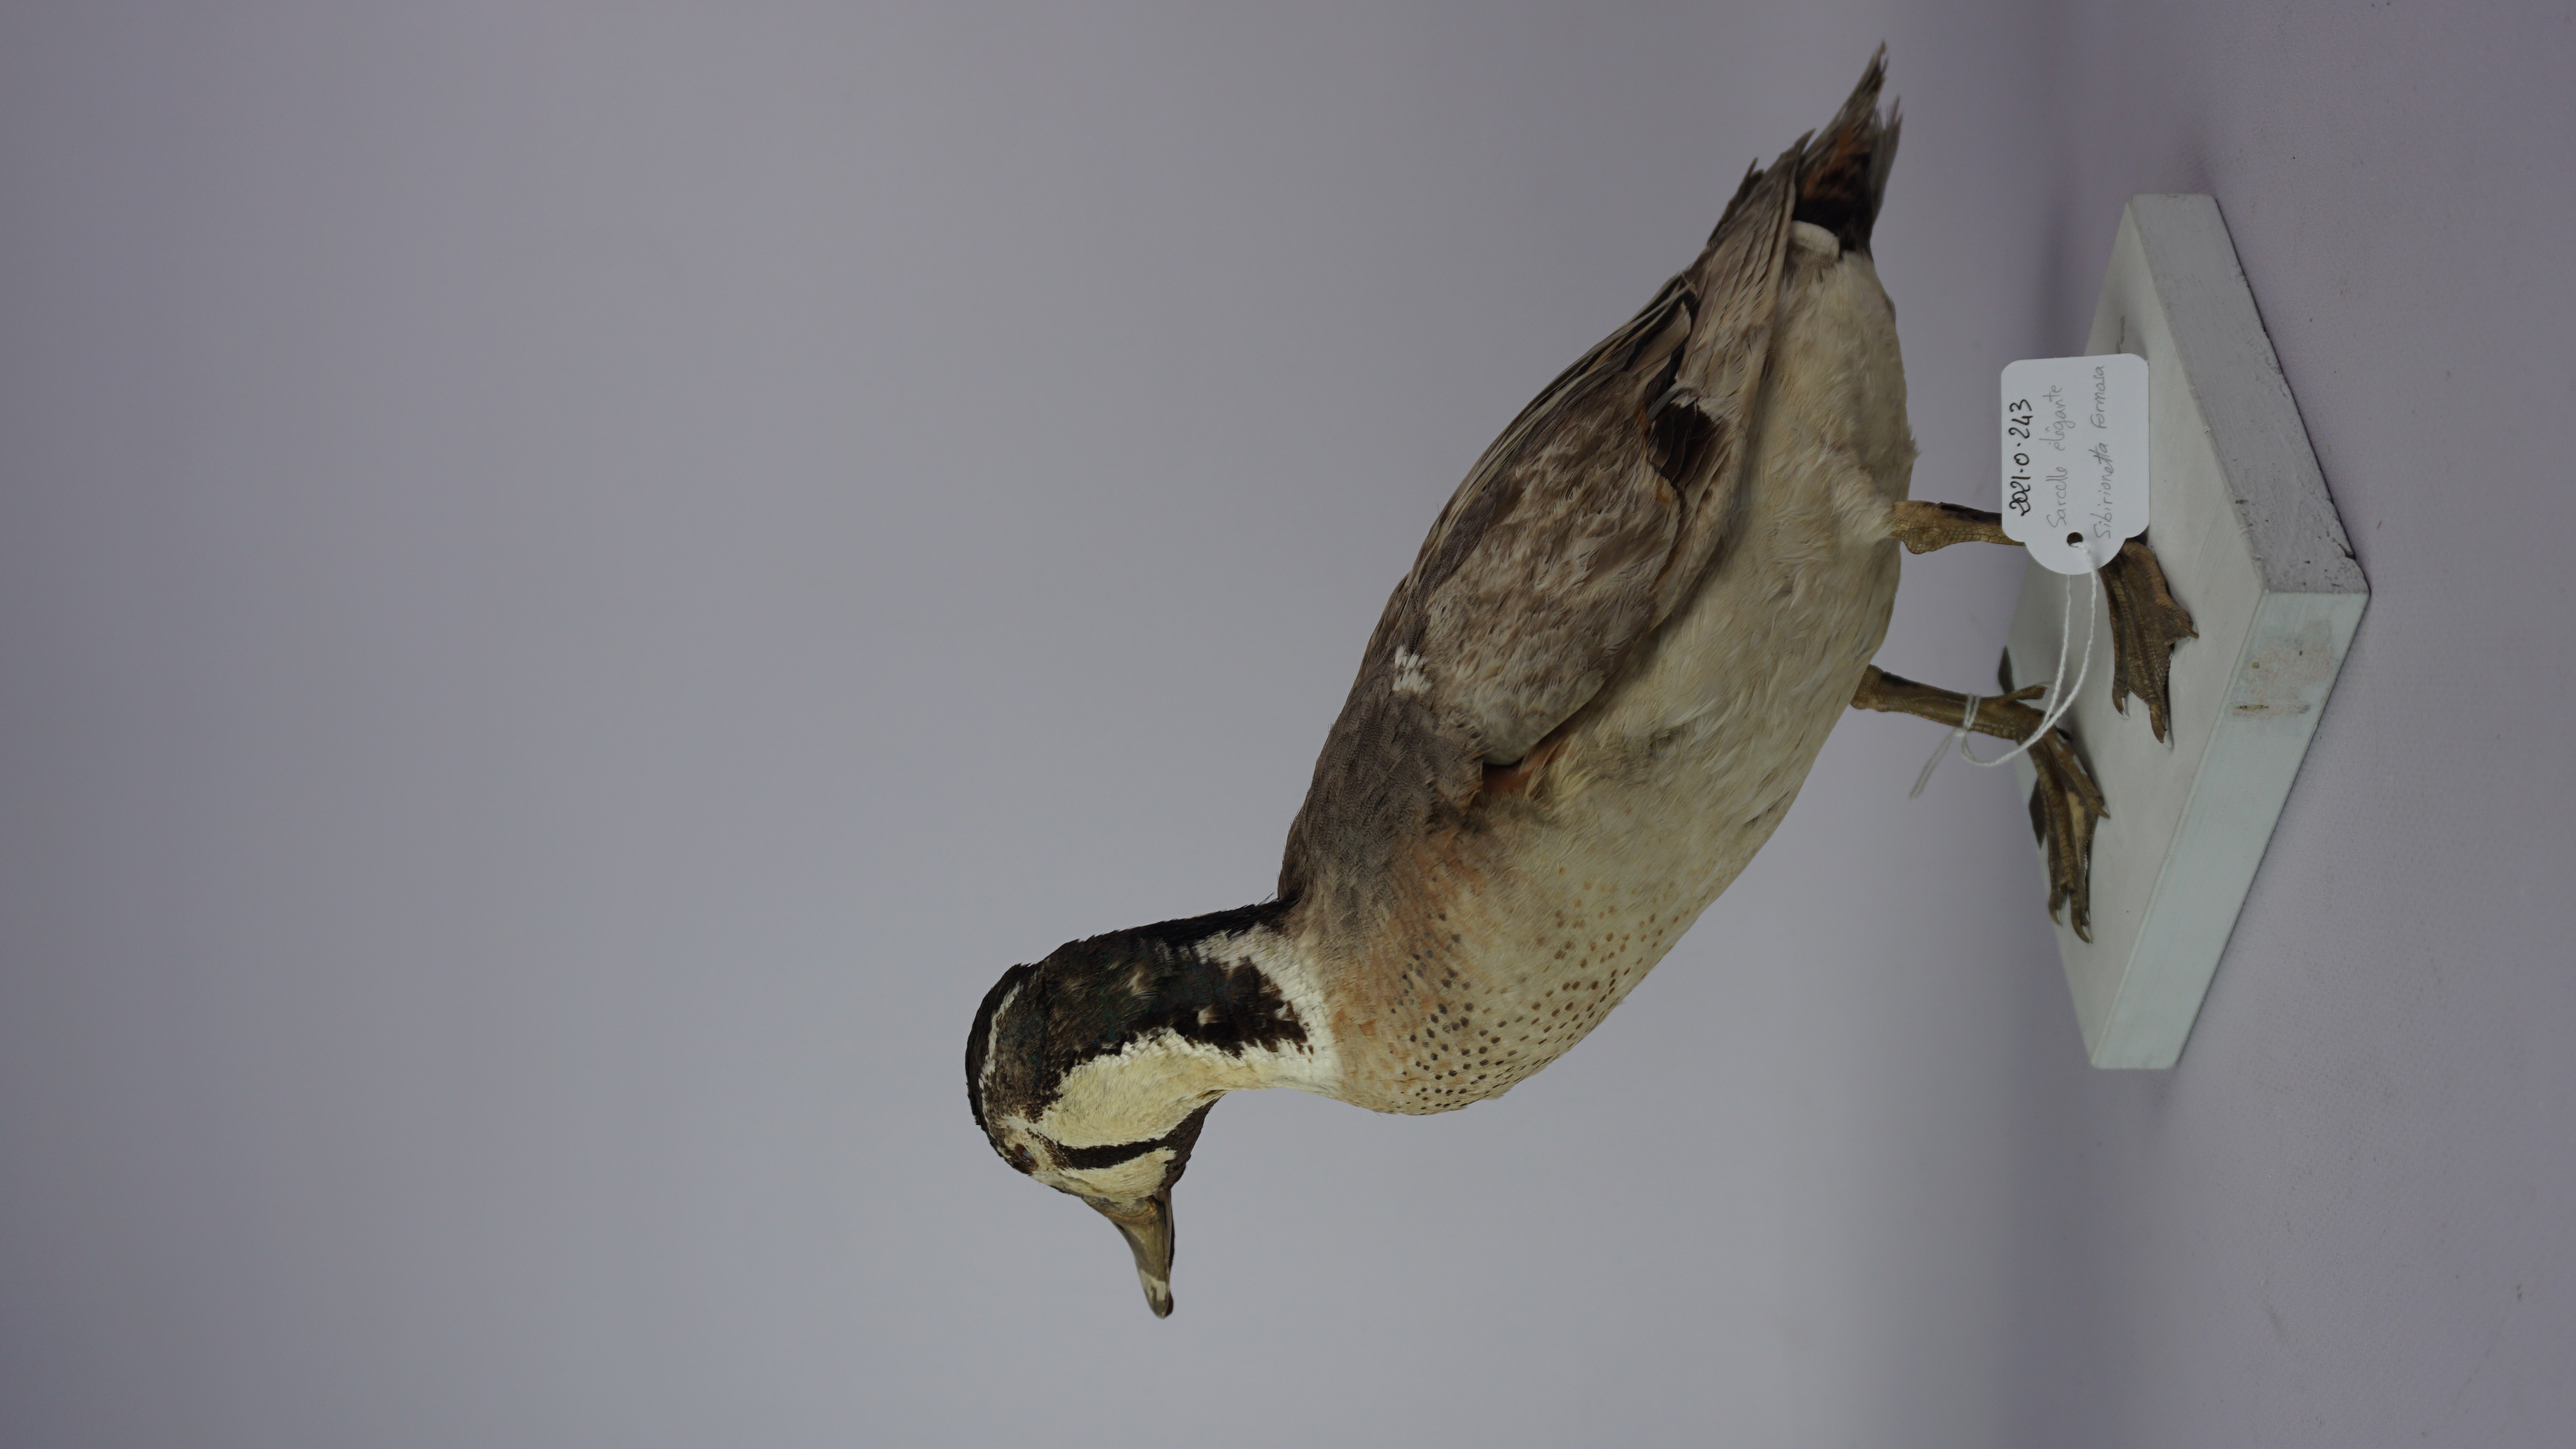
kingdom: Animalia
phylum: Chordata
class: Aves
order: Anseriformes
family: Anatidae
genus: Sibirionetta
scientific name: Sibirionetta formosa
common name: Baikal teal
